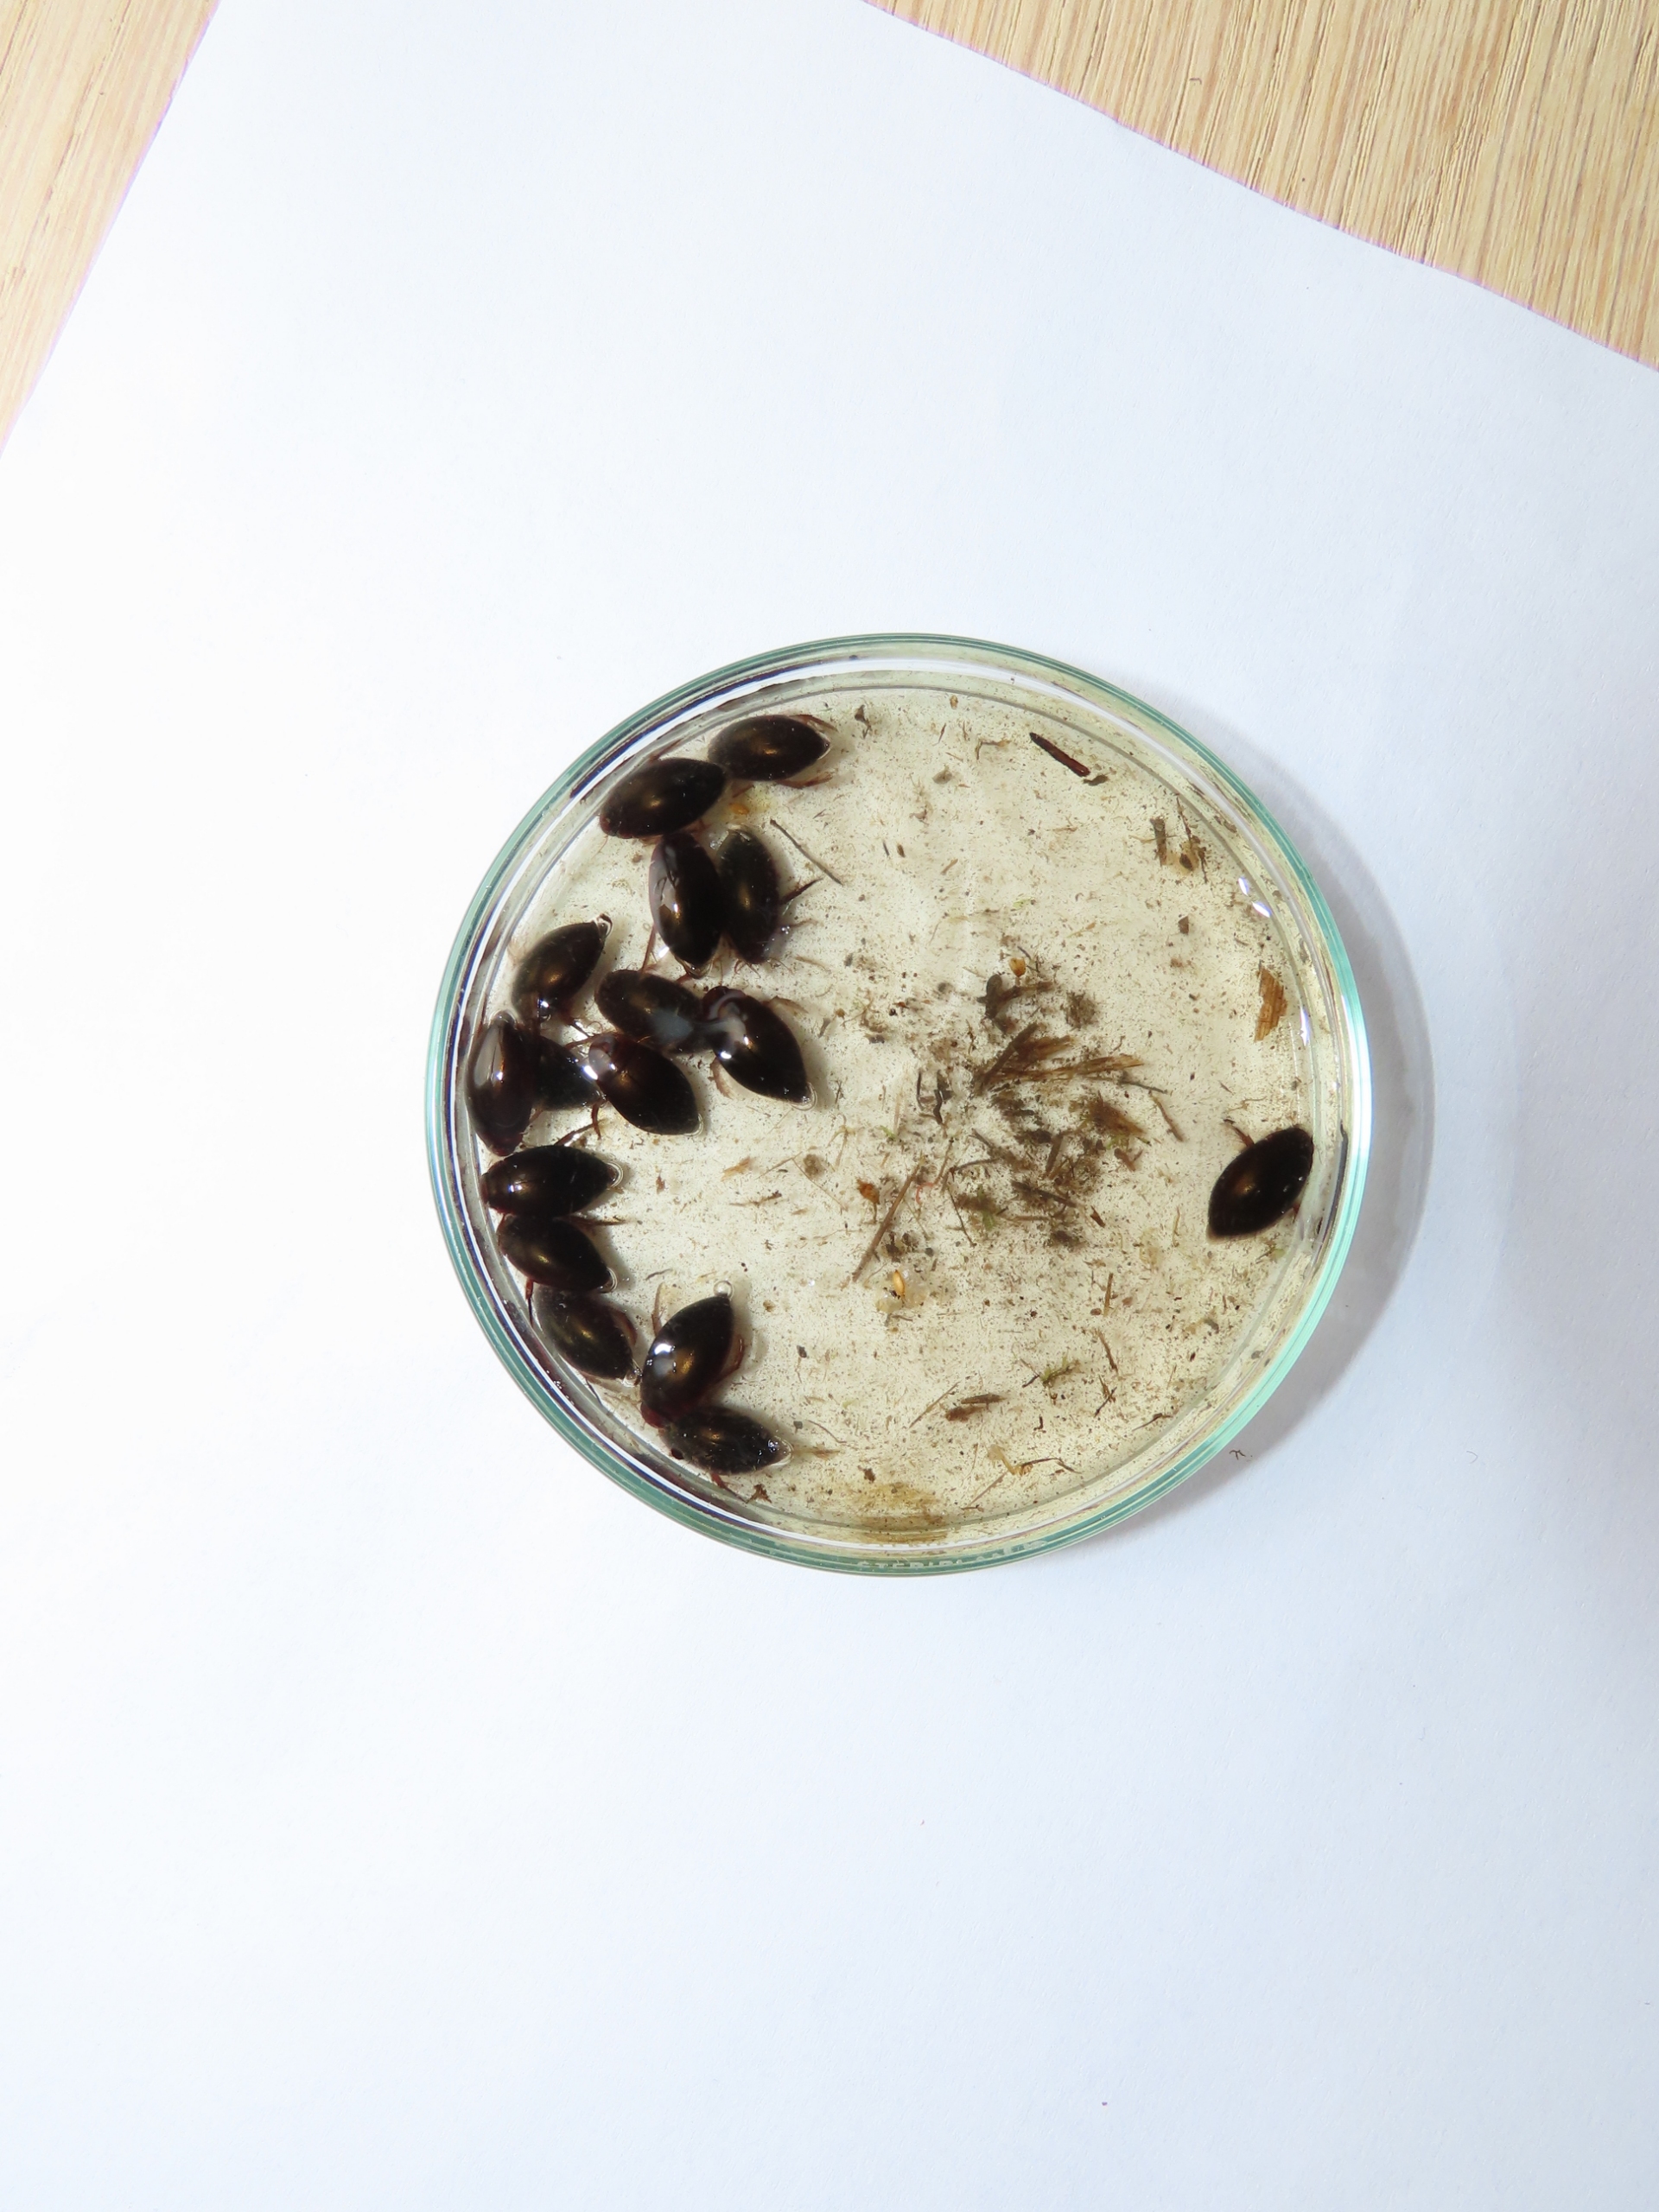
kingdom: Animalia
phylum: Arthropoda
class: Insecta
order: Coleoptera
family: Dytiscidae
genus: Ilybius
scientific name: Ilybius fenestratus
